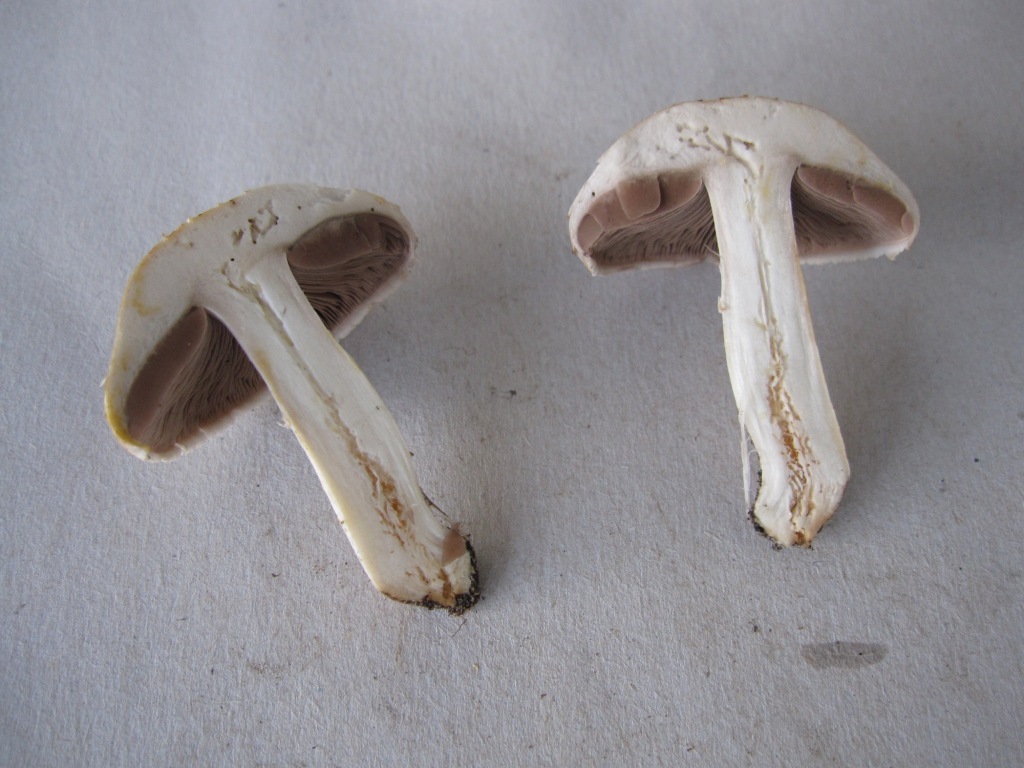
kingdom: Fungi
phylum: Basidiomycota
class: Agaricomycetes
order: Agaricales
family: Agaricaceae
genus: Agaricus
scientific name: Agaricus campestris
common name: mark-champignon
